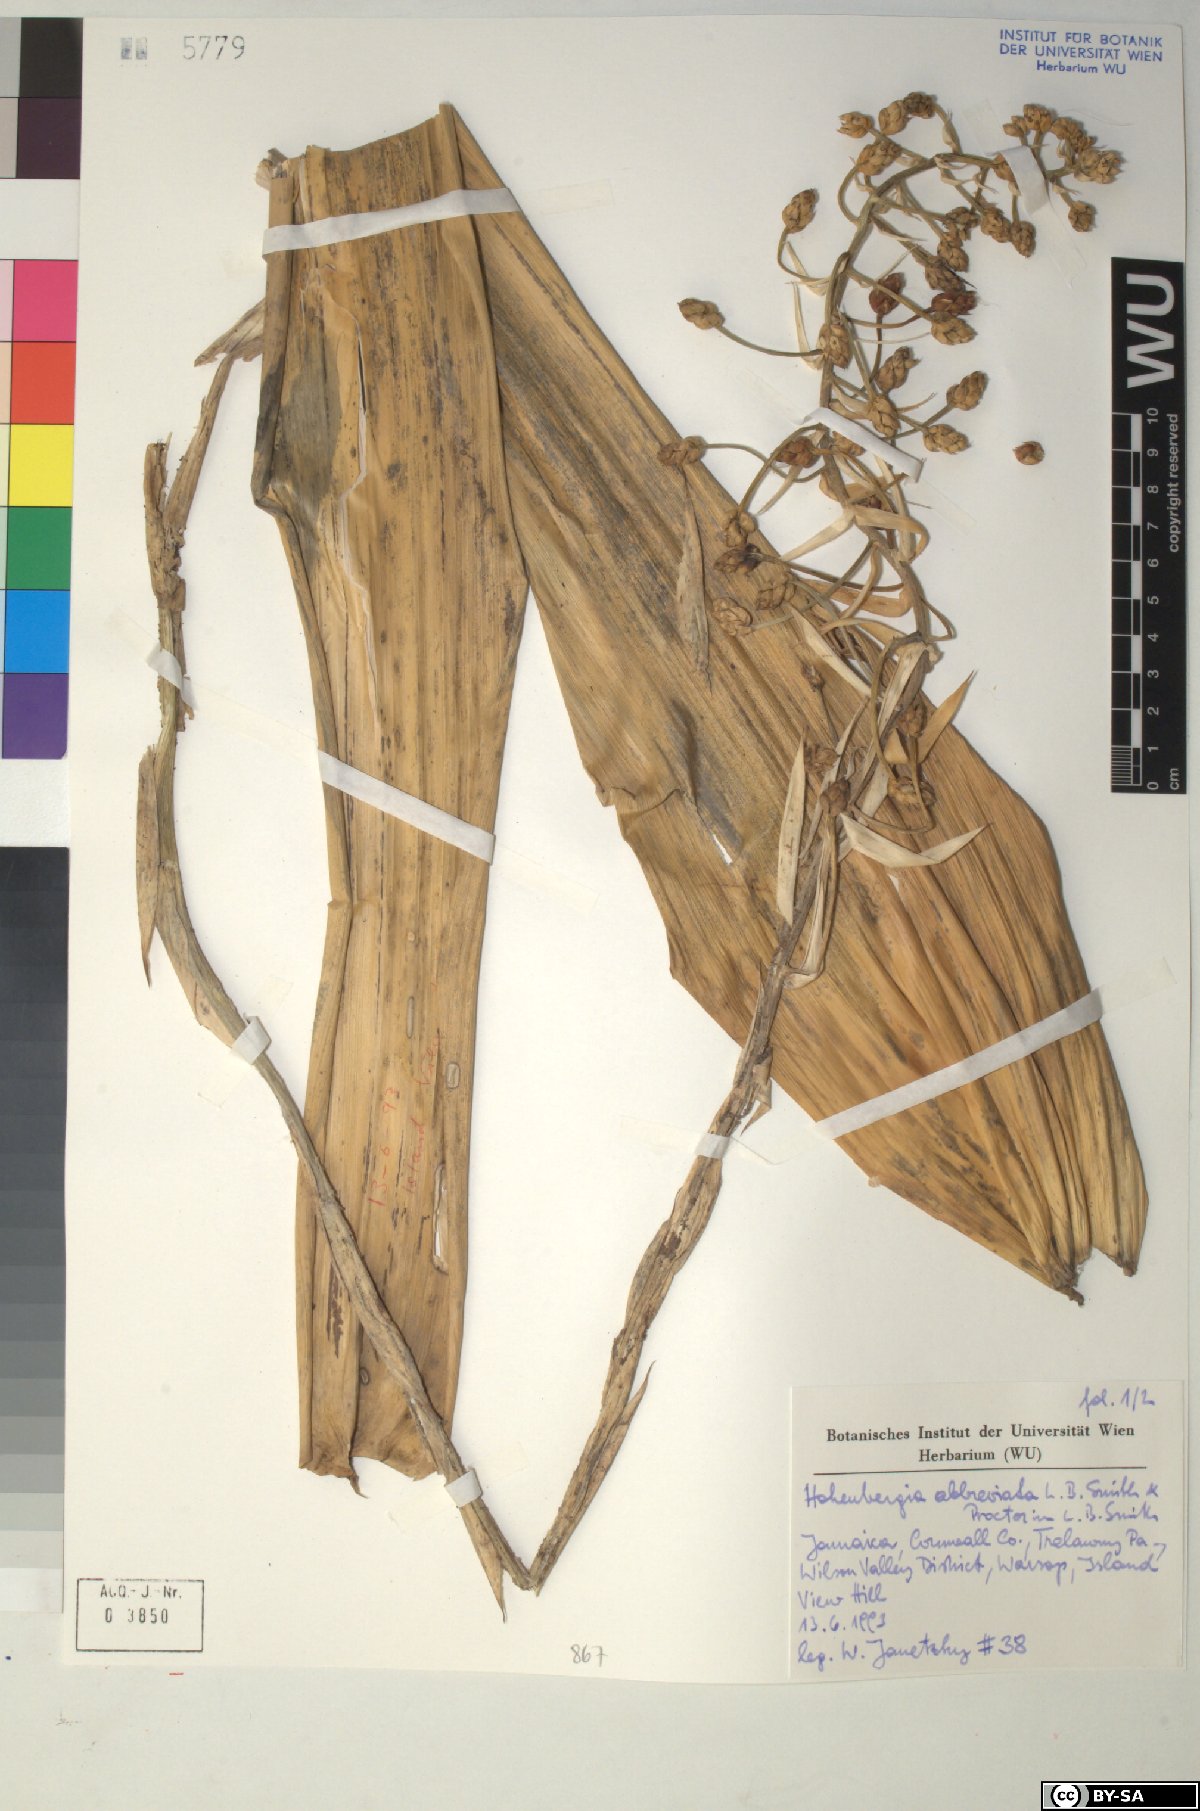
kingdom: Plantae
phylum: Tracheophyta
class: Liliopsida
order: Poales
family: Bromeliaceae
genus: Wittmackia
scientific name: Wittmackia abbreviata
